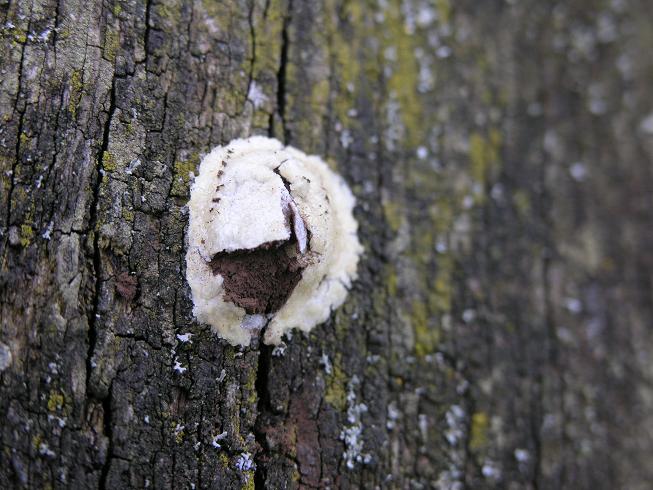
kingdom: Protozoa
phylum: Mycetozoa
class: Myxomycetes
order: Cribrariales
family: Tubiferaceae
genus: Reticularia
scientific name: Reticularia lycoperdon
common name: skinnende støvpude
